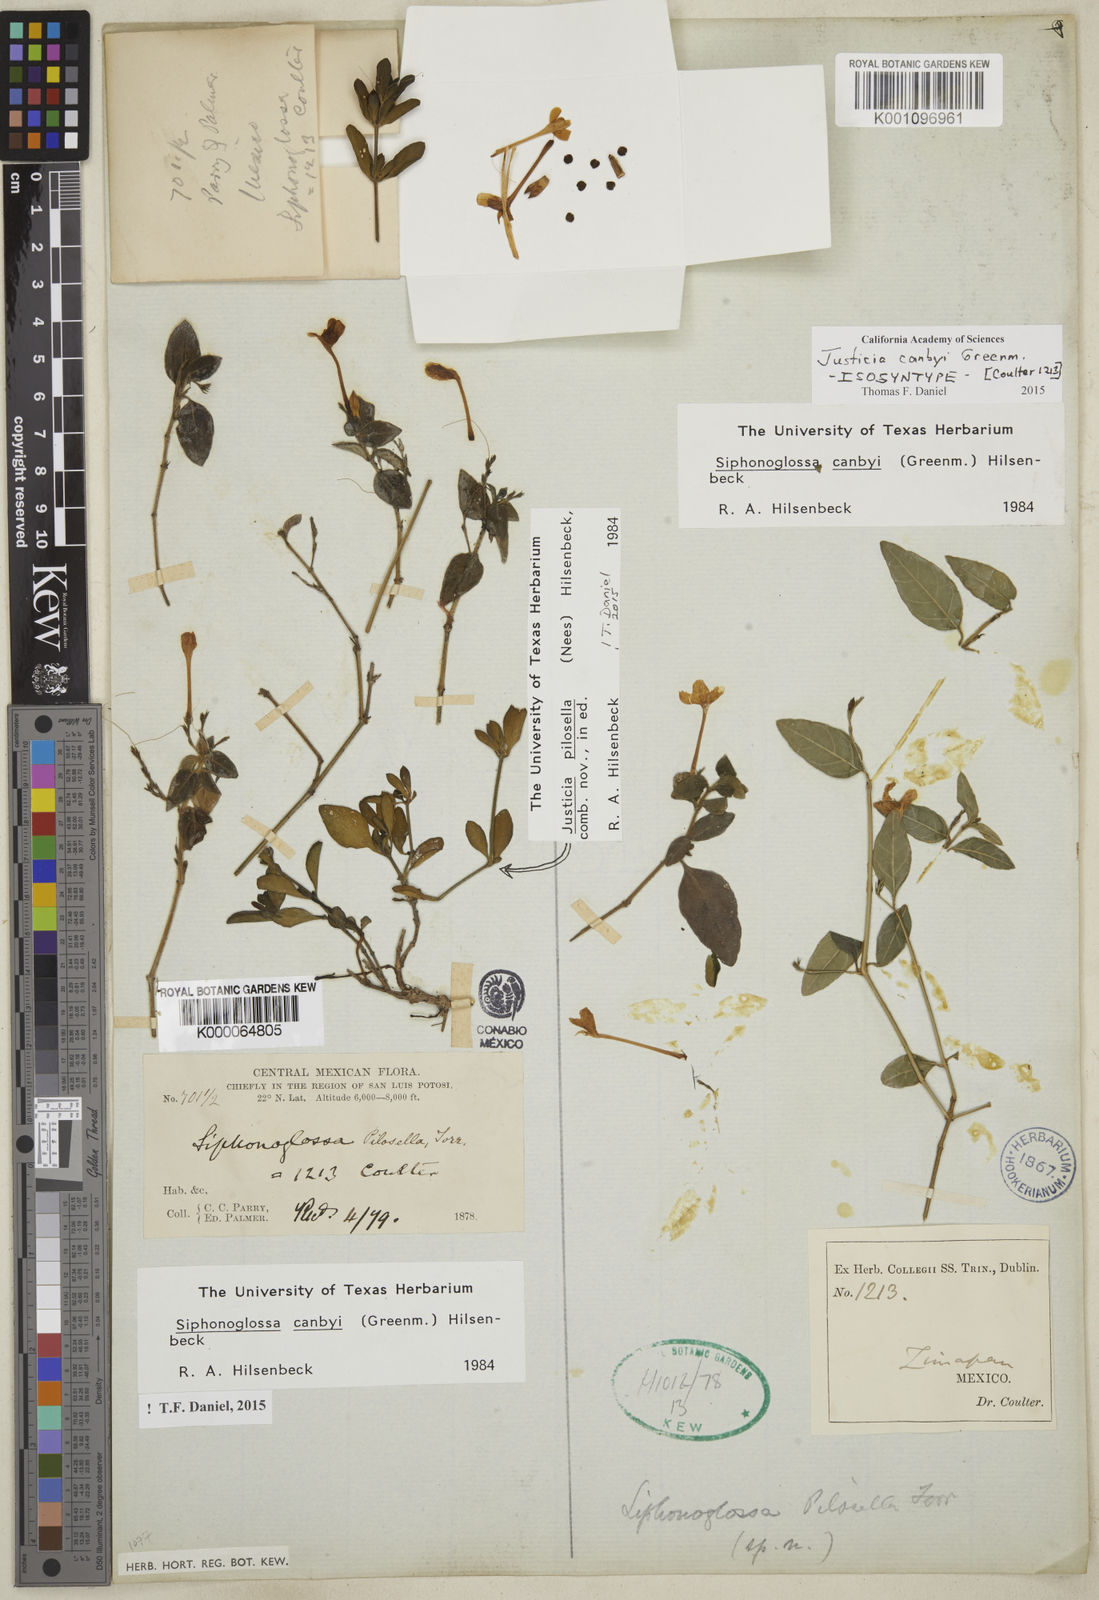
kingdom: Plantae
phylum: Tracheophyta
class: Magnoliopsida
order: Lamiales
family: Acanthaceae
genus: Justicia
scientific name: Justicia pilosella
